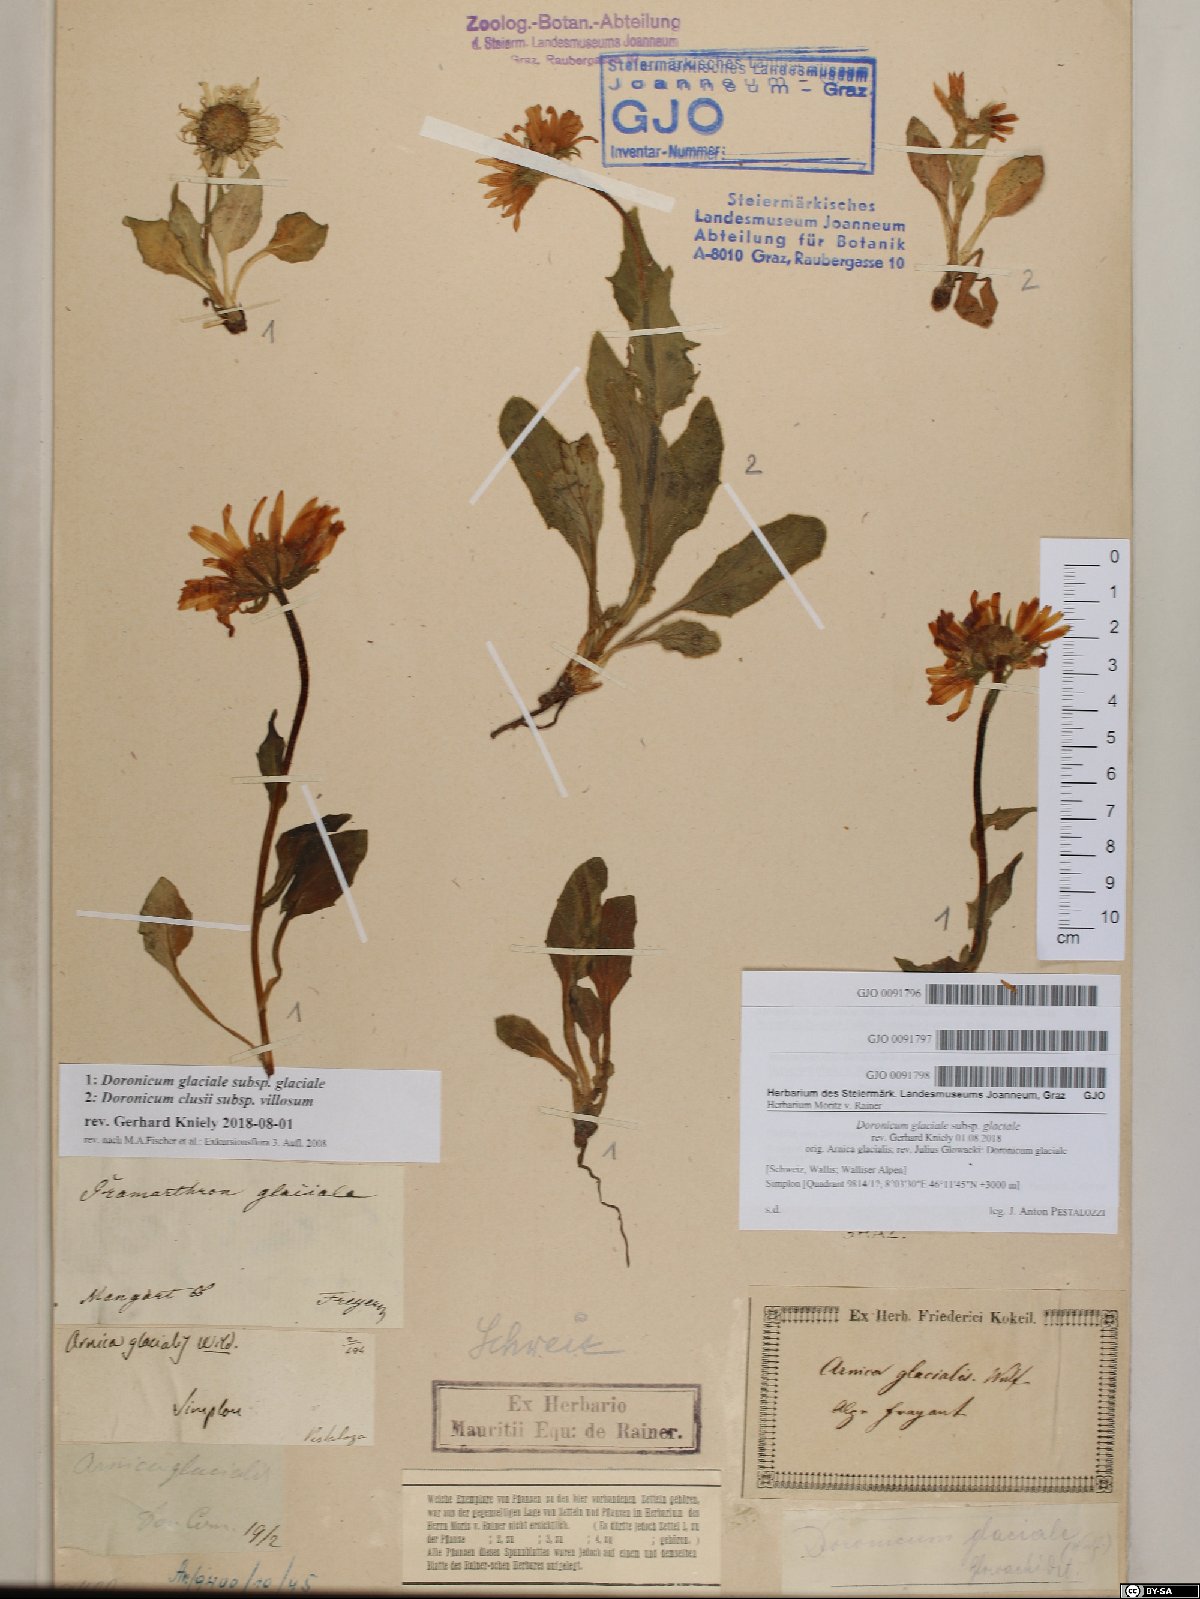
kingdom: Plantae
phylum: Tracheophyta
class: Magnoliopsida
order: Asterales
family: Asteraceae
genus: Doronicum
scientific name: Doronicum glaciale
